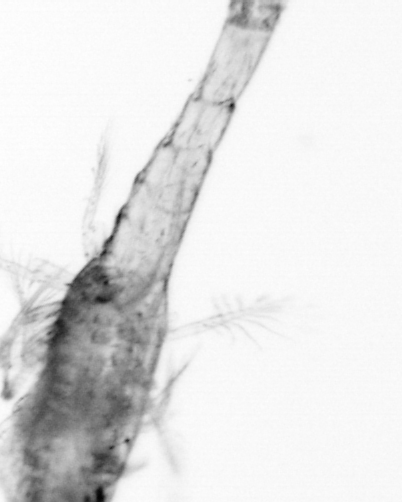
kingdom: Animalia
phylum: Arthropoda
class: Copepoda
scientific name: Copepoda
